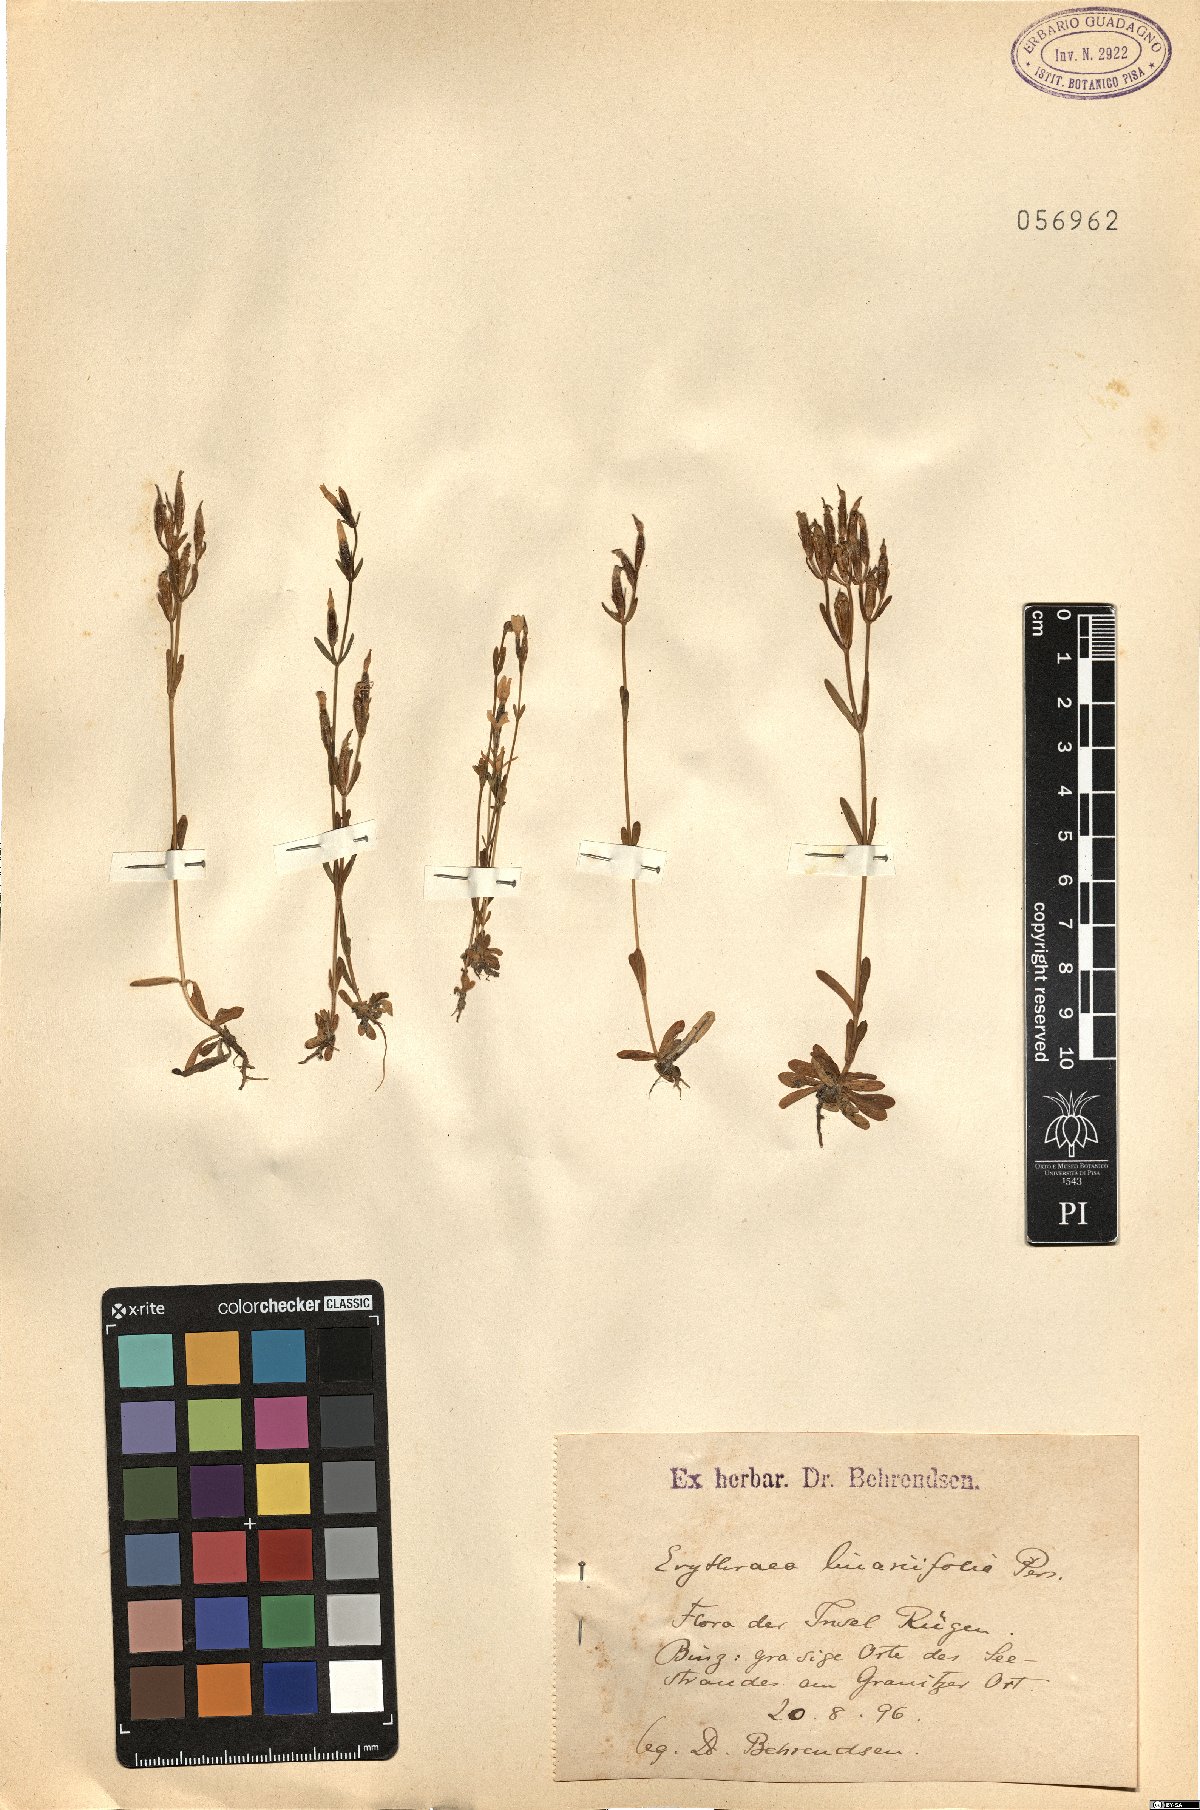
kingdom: Plantae
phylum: Tracheophyta
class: Magnoliopsida
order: Gentianales
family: Gentianaceae
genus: Centaurium
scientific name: Centaurium quadrifolium
